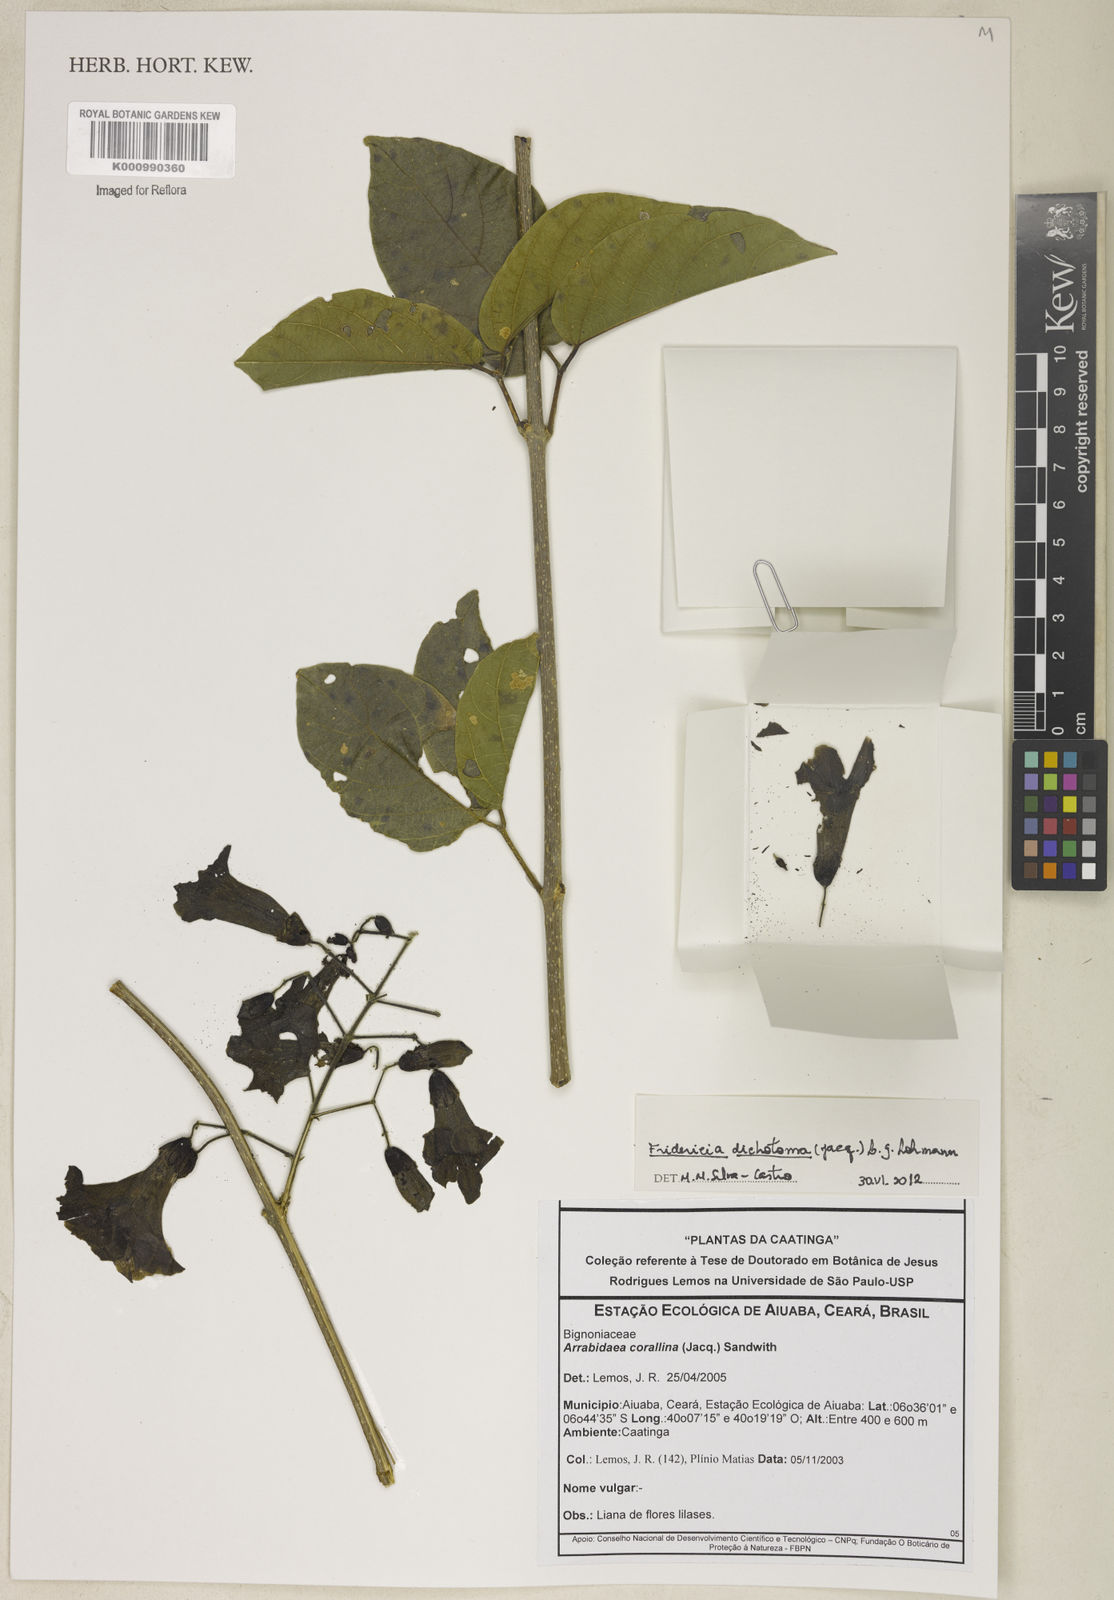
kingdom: Plantae
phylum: Tracheophyta
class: Magnoliopsida
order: Lamiales
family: Bignoniaceae
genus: Tanaecium
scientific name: Tanaecium dichotomum
